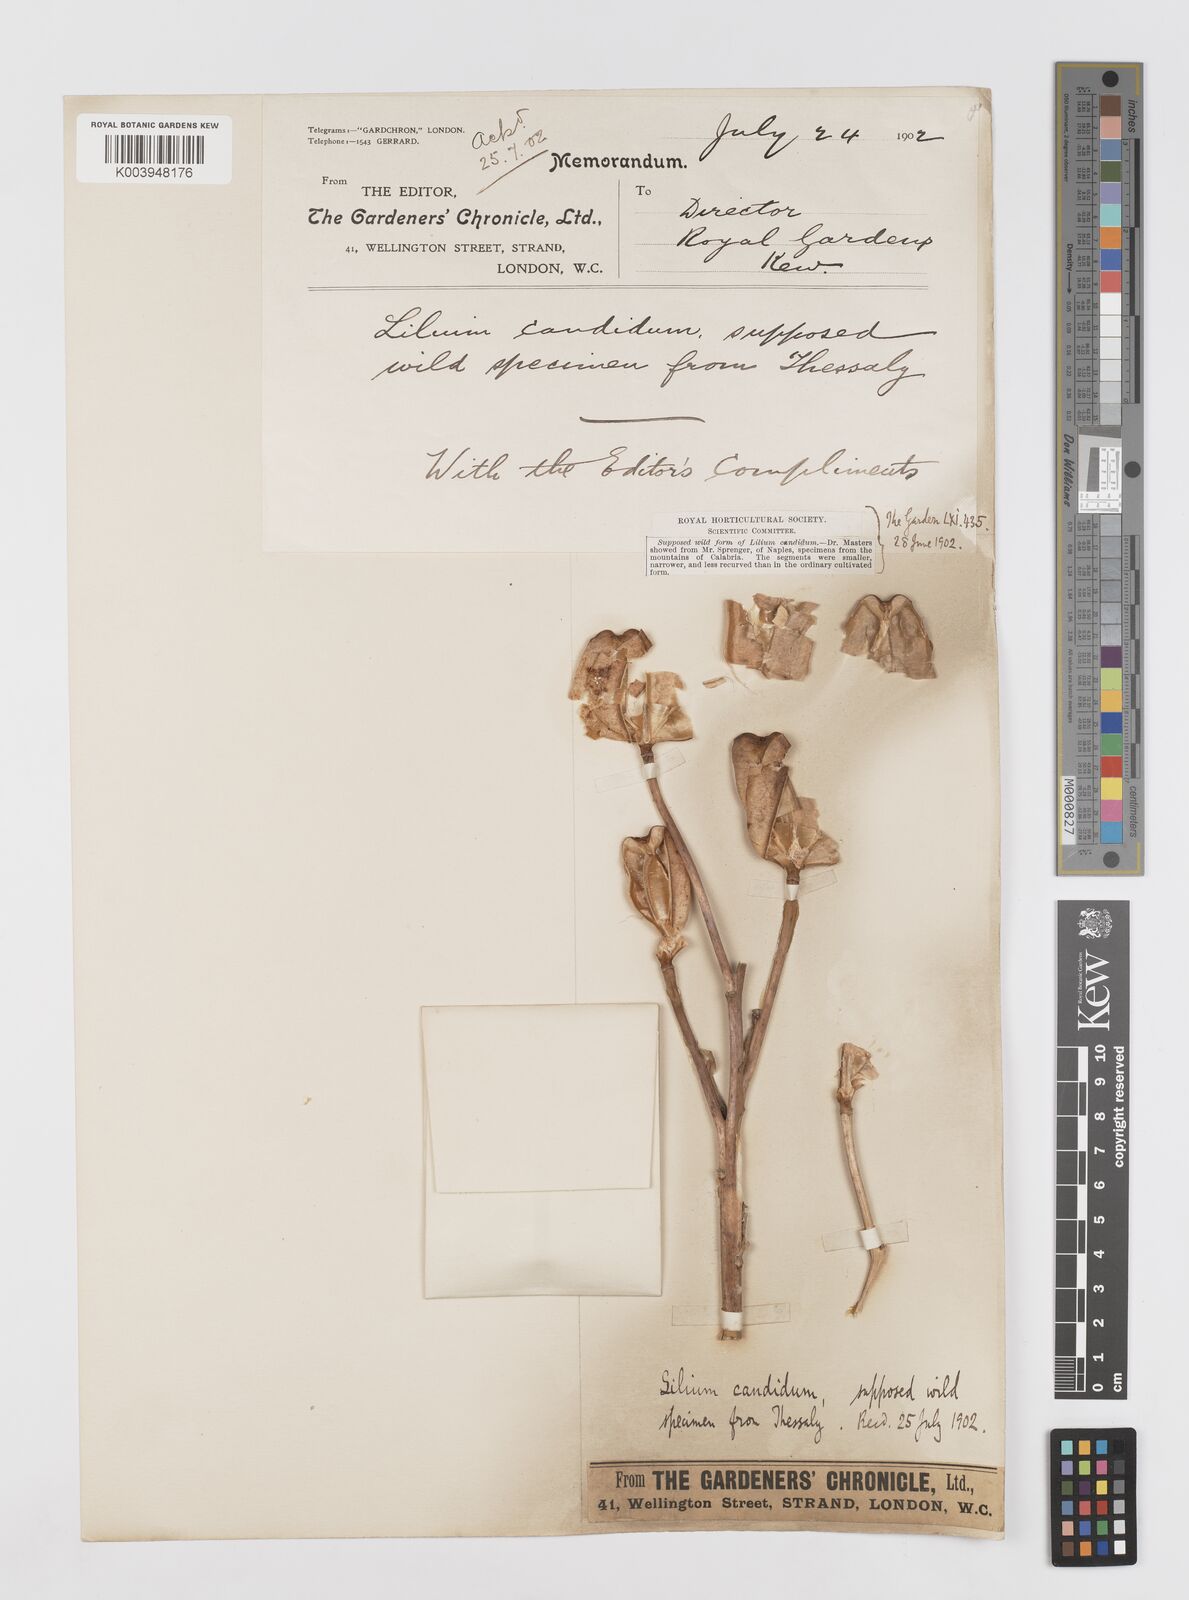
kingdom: Plantae
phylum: Tracheophyta
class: Liliopsida
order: Liliales
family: Liliaceae
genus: Lilium
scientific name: Lilium candidum
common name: Madonna lily
